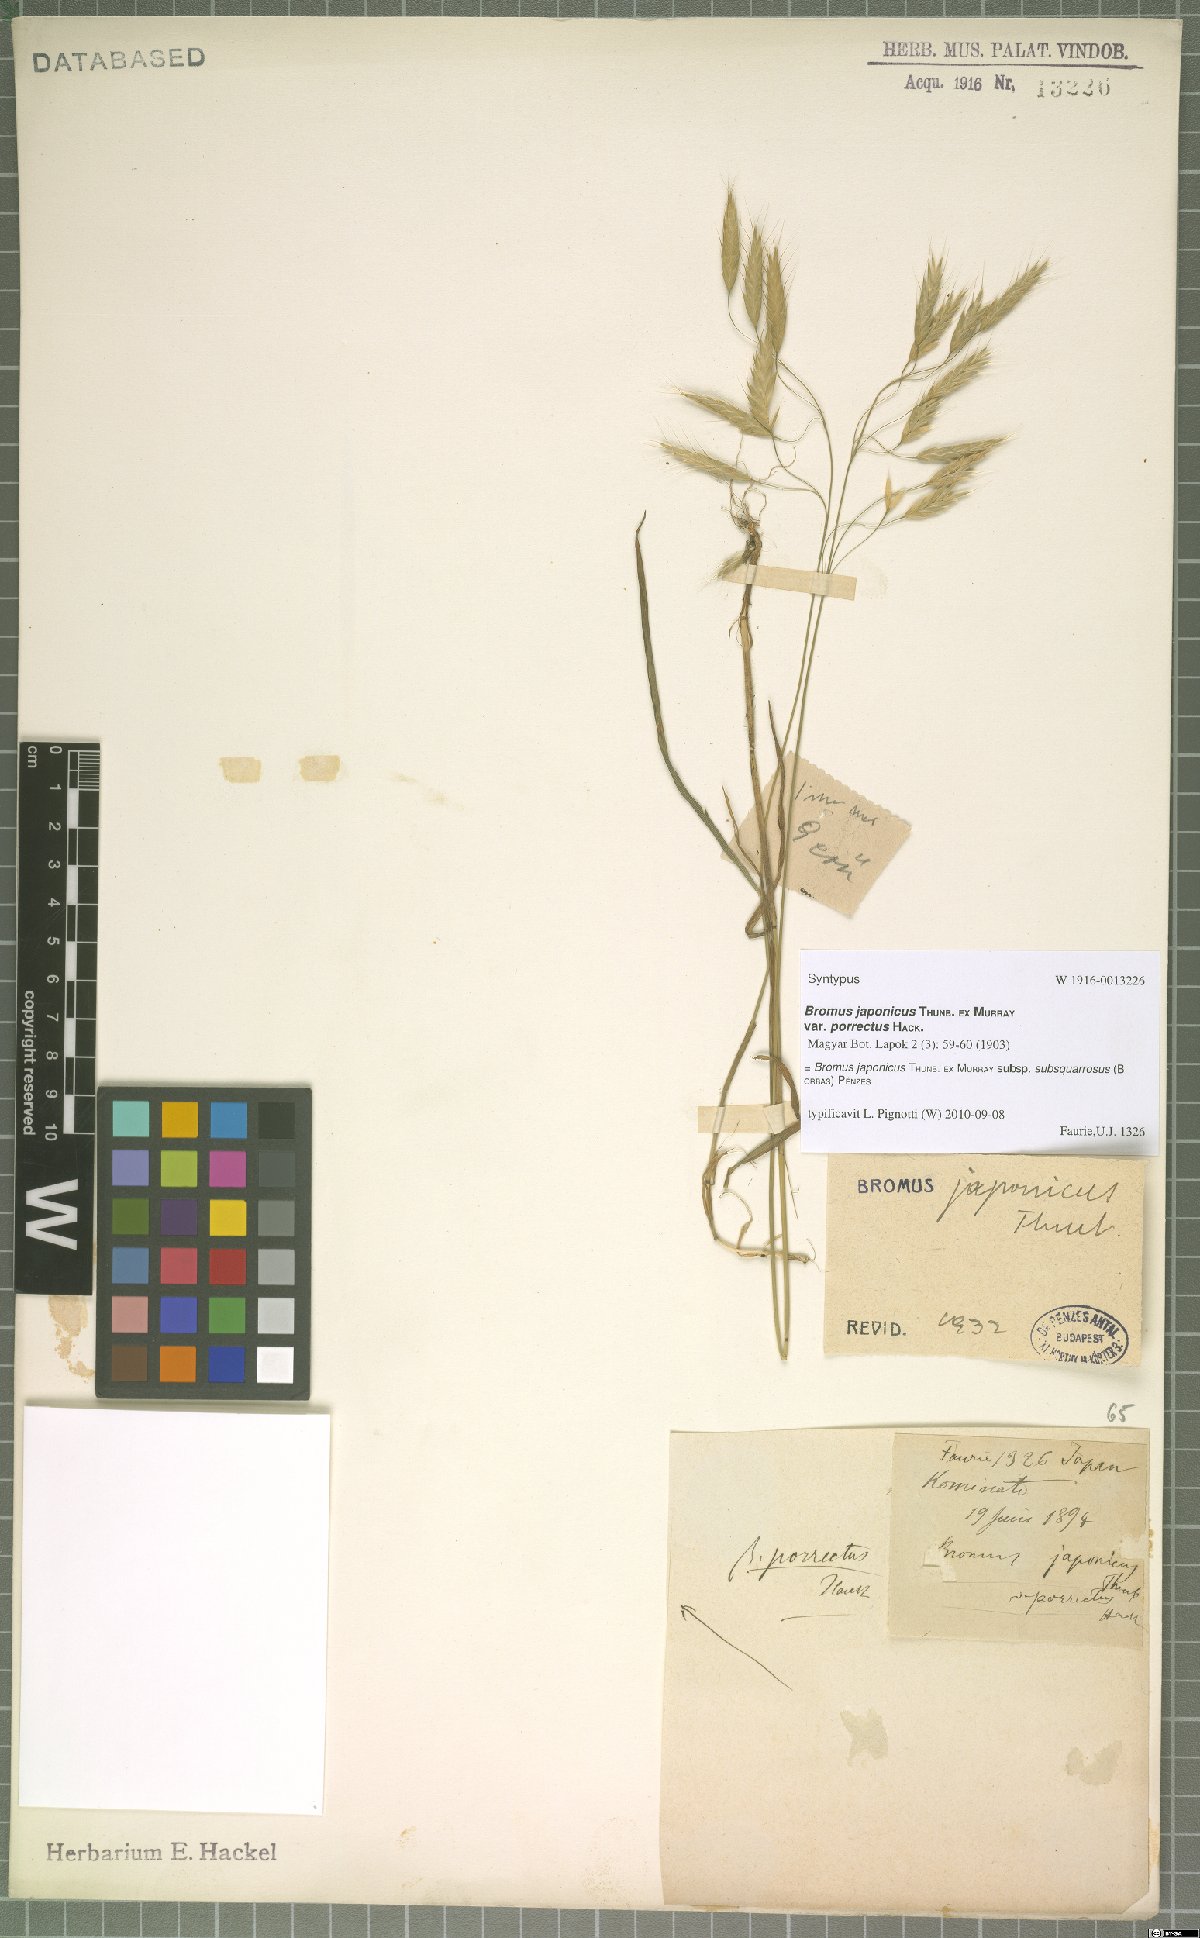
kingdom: Plantae
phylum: Tracheophyta
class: Liliopsida
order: Poales
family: Poaceae
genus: Bromus
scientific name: Bromus japonicus
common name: Japanese brome
